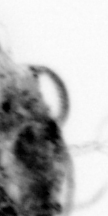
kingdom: Animalia
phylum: Arthropoda
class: Copepoda
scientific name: Copepoda
